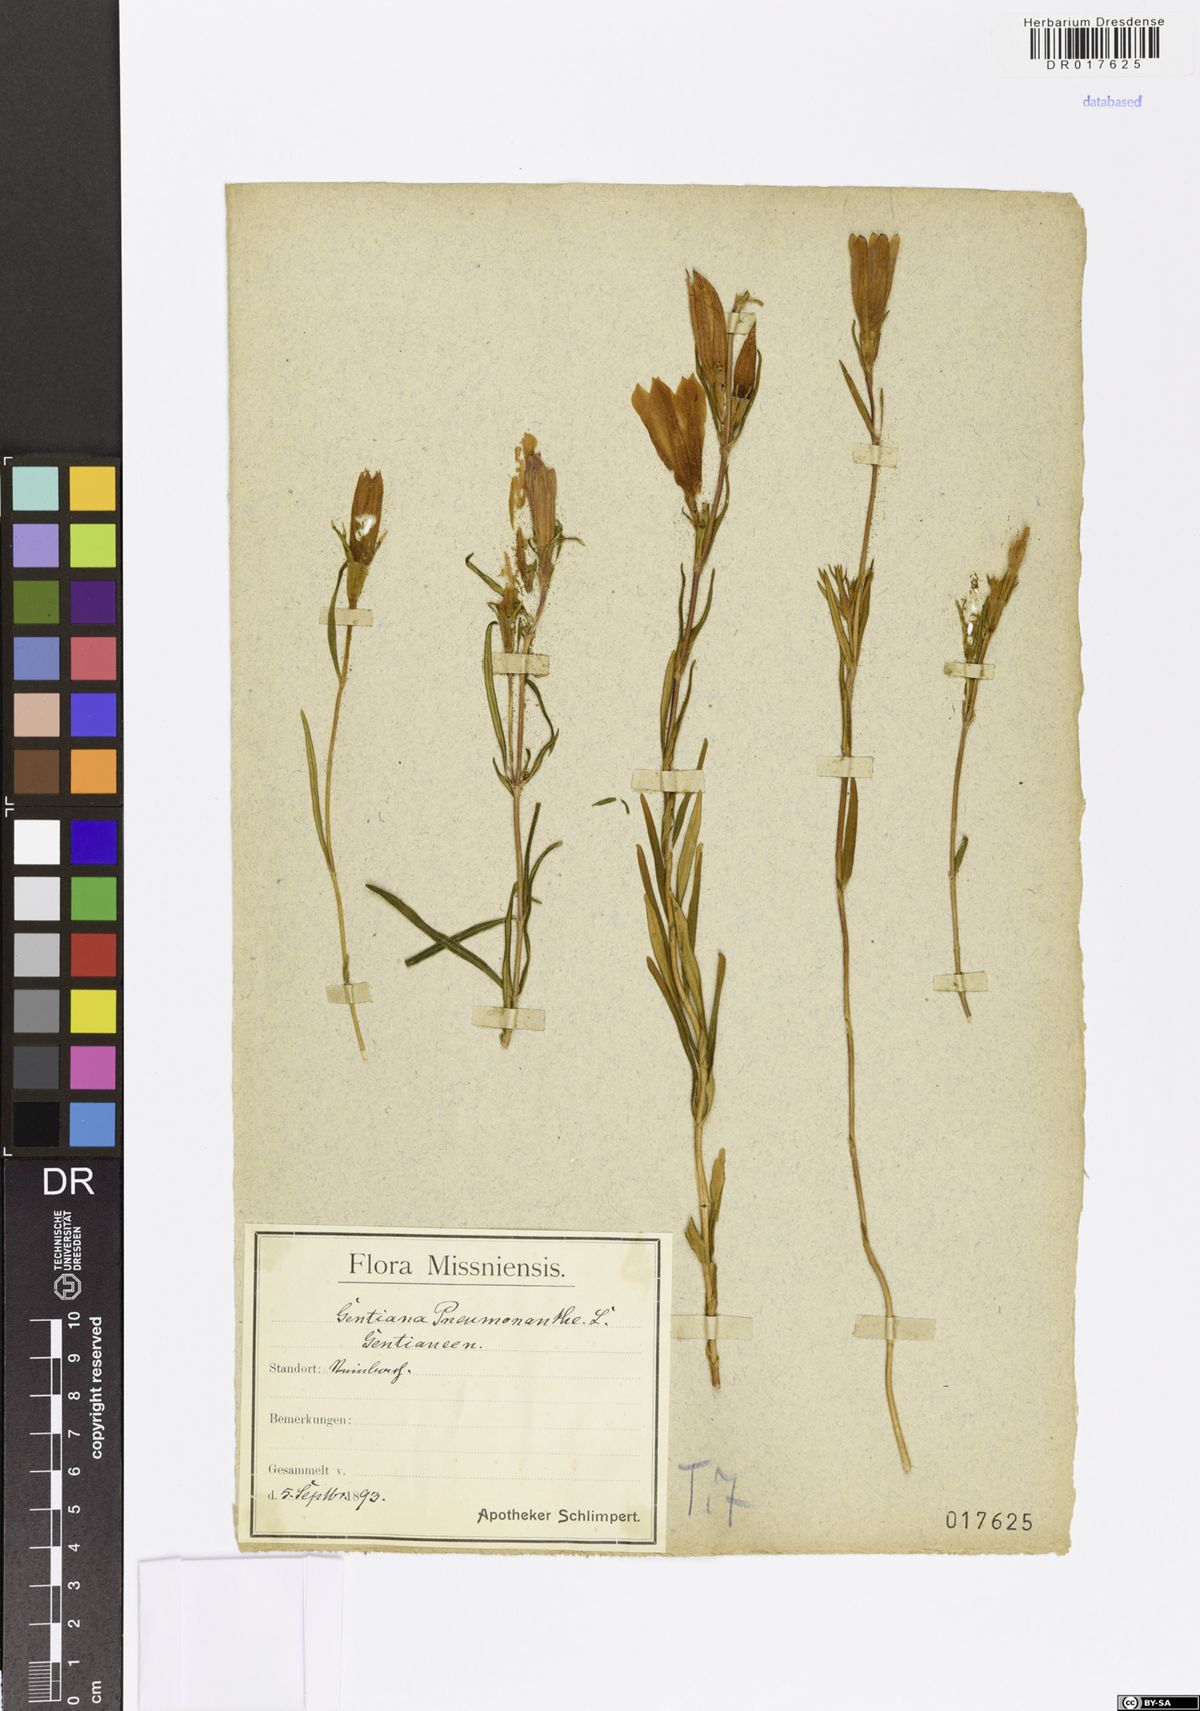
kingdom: Plantae
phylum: Tracheophyta
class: Magnoliopsida
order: Gentianales
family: Gentianaceae
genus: Gentiana
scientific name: Gentiana pneumonanthe
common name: Marsh gentian
